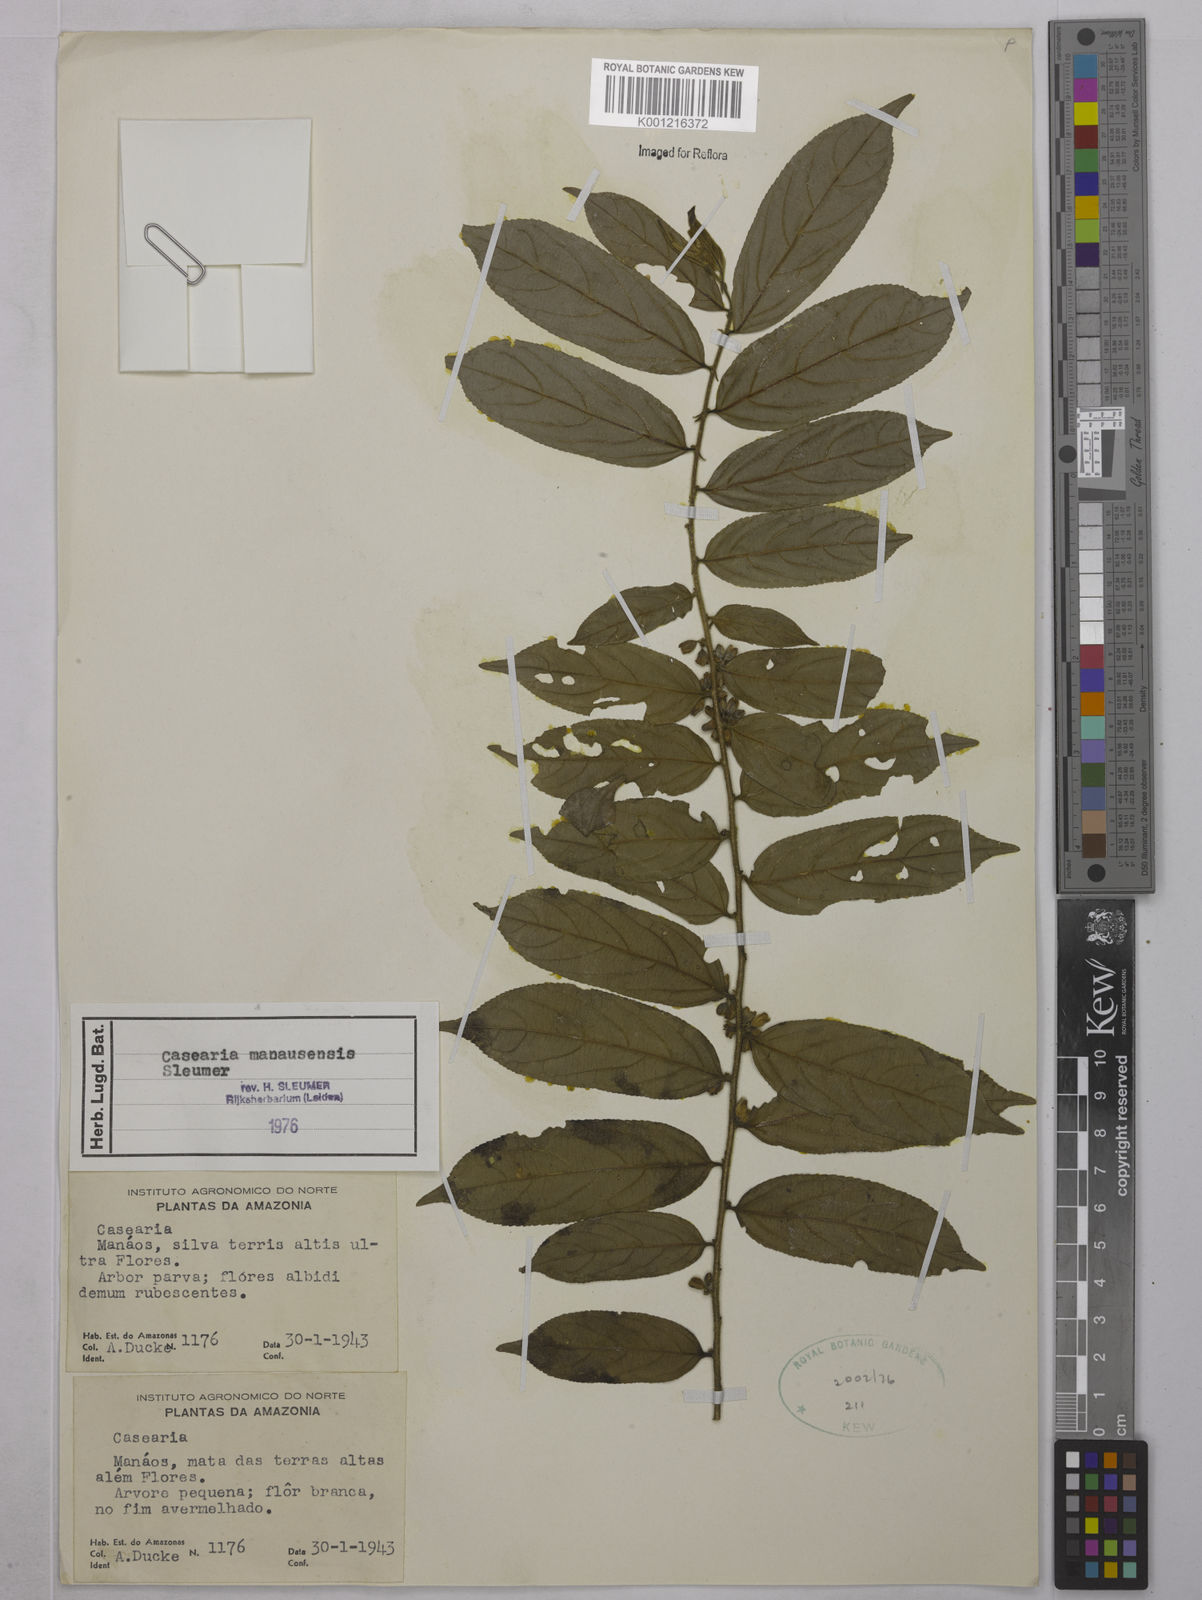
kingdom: Plantae
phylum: Tracheophyta
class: Magnoliopsida
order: Malpighiales
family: Salicaceae
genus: Casearia
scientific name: Casearia manausensis
